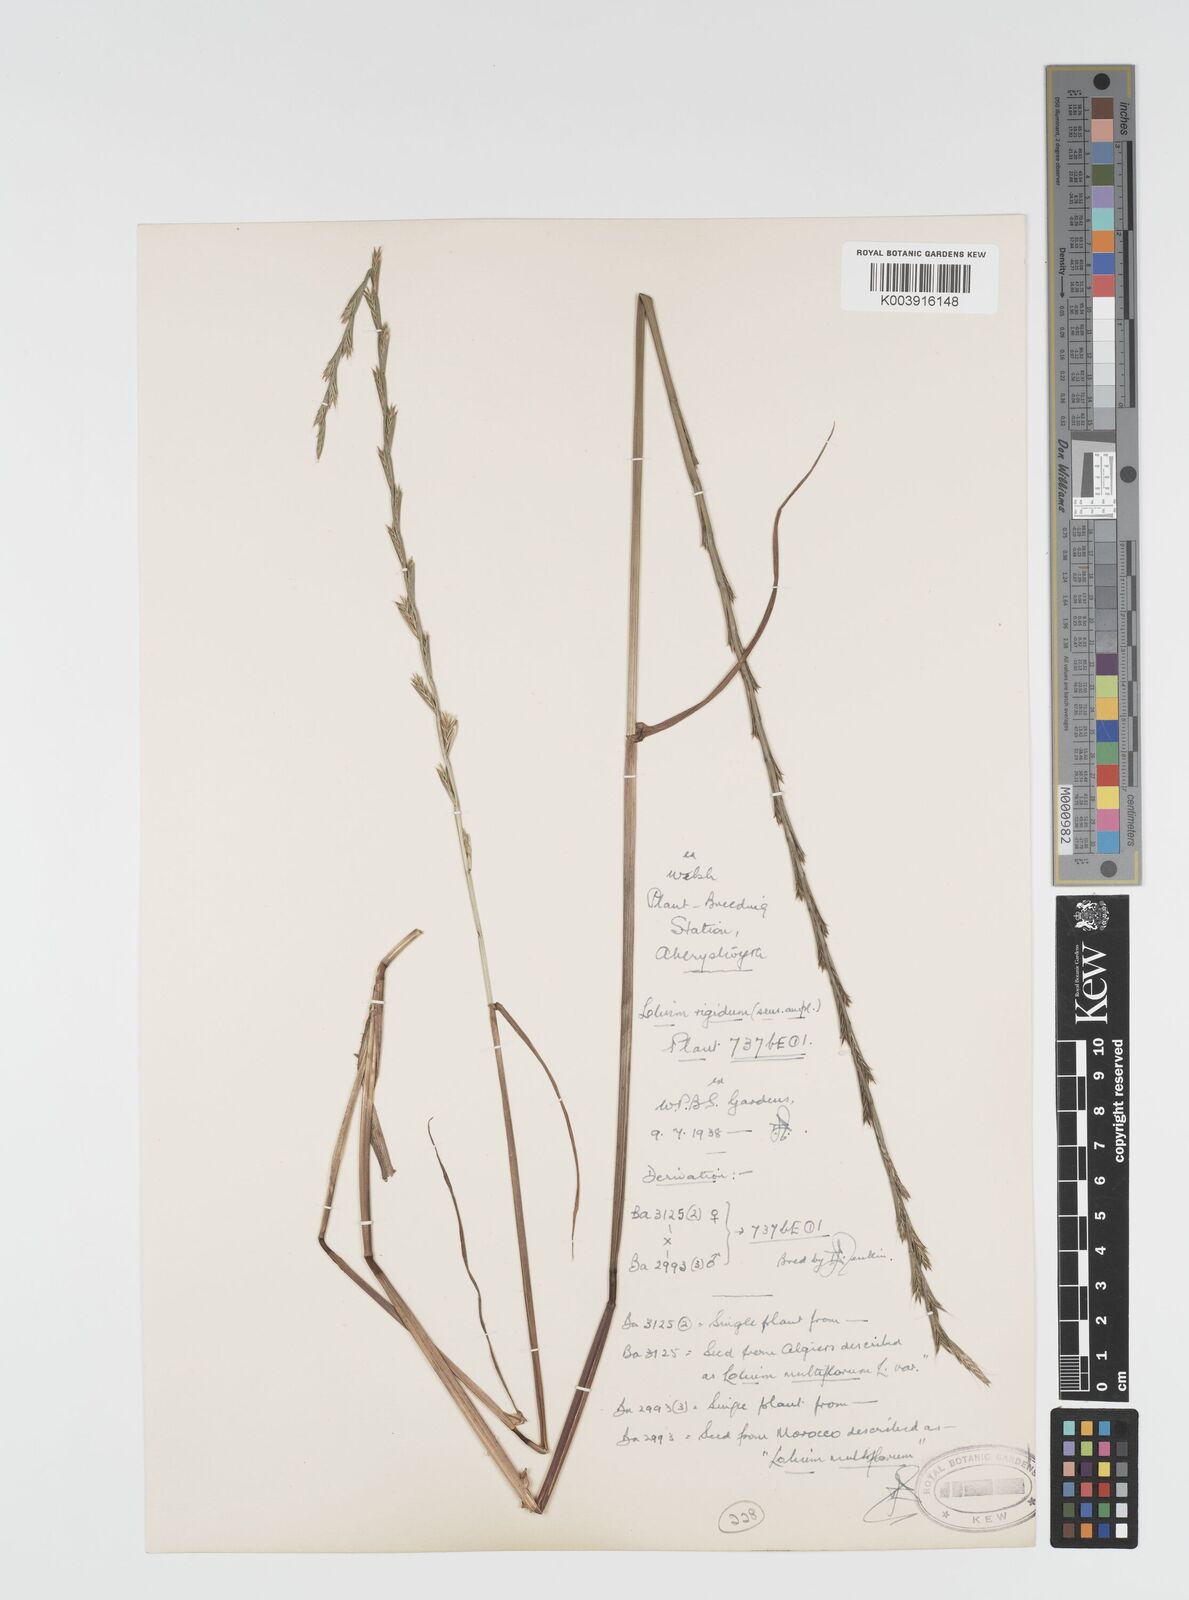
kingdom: Plantae
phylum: Tracheophyta
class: Liliopsida
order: Poales
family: Poaceae
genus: Lolium
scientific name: Lolium rigidum
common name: Wimmera ryegrass
